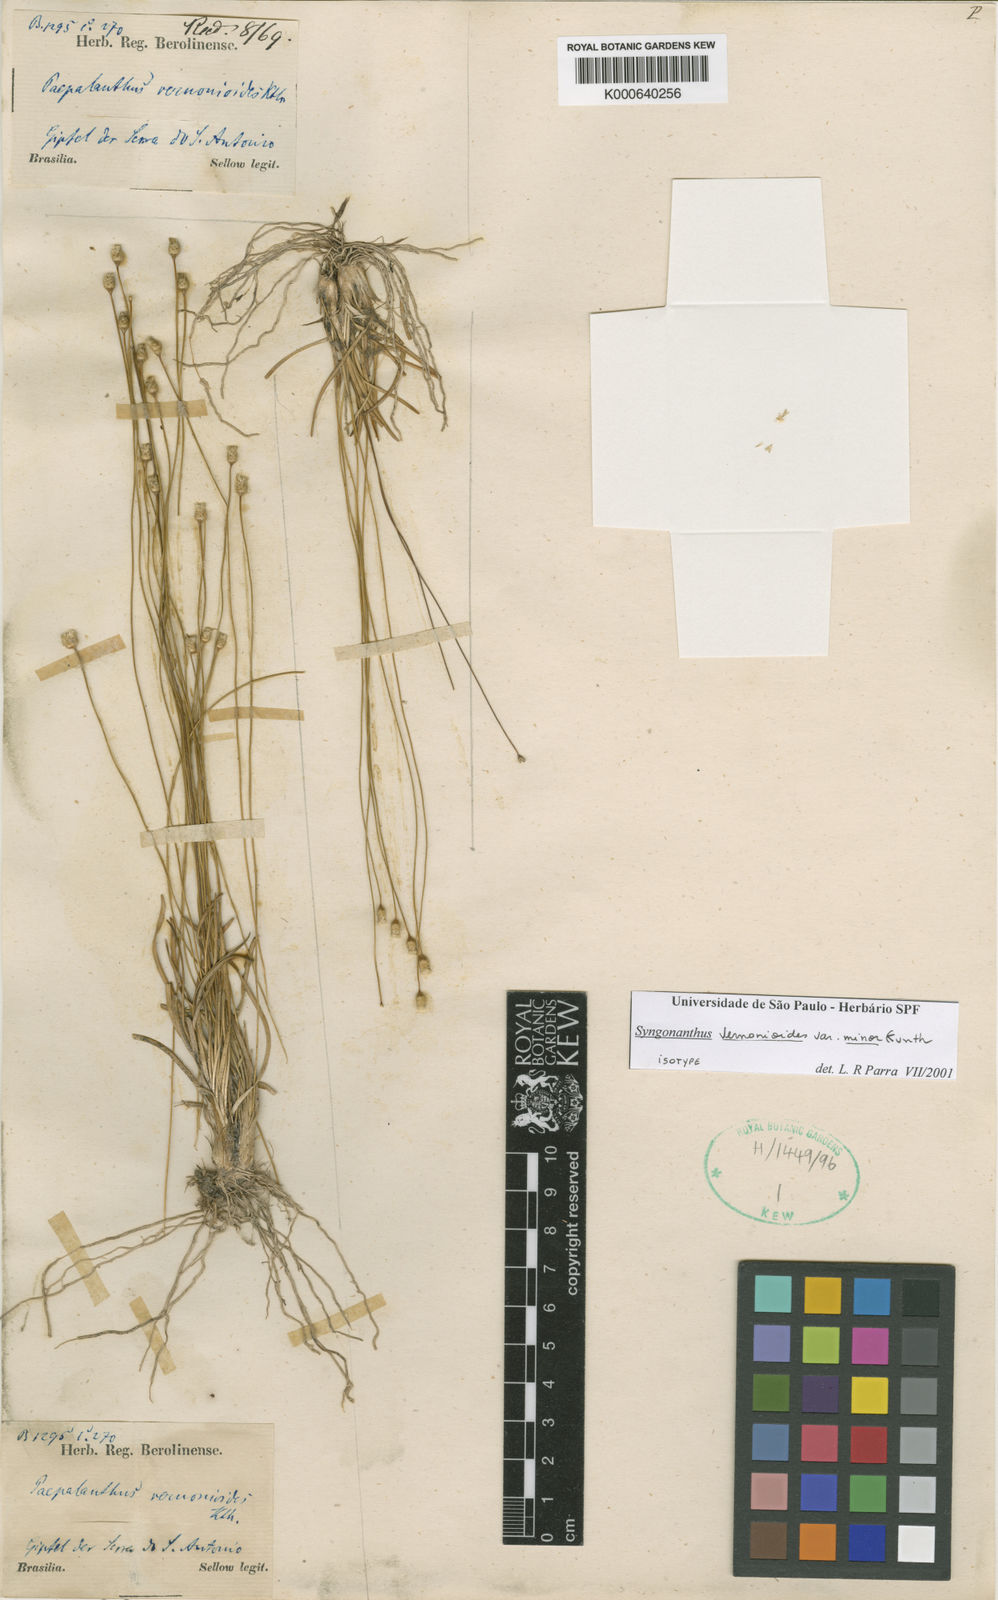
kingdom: Plantae
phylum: Tracheophyta
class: Liliopsida
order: Poales
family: Eriocaulaceae
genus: Comanthera
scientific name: Comanthera centauroides
